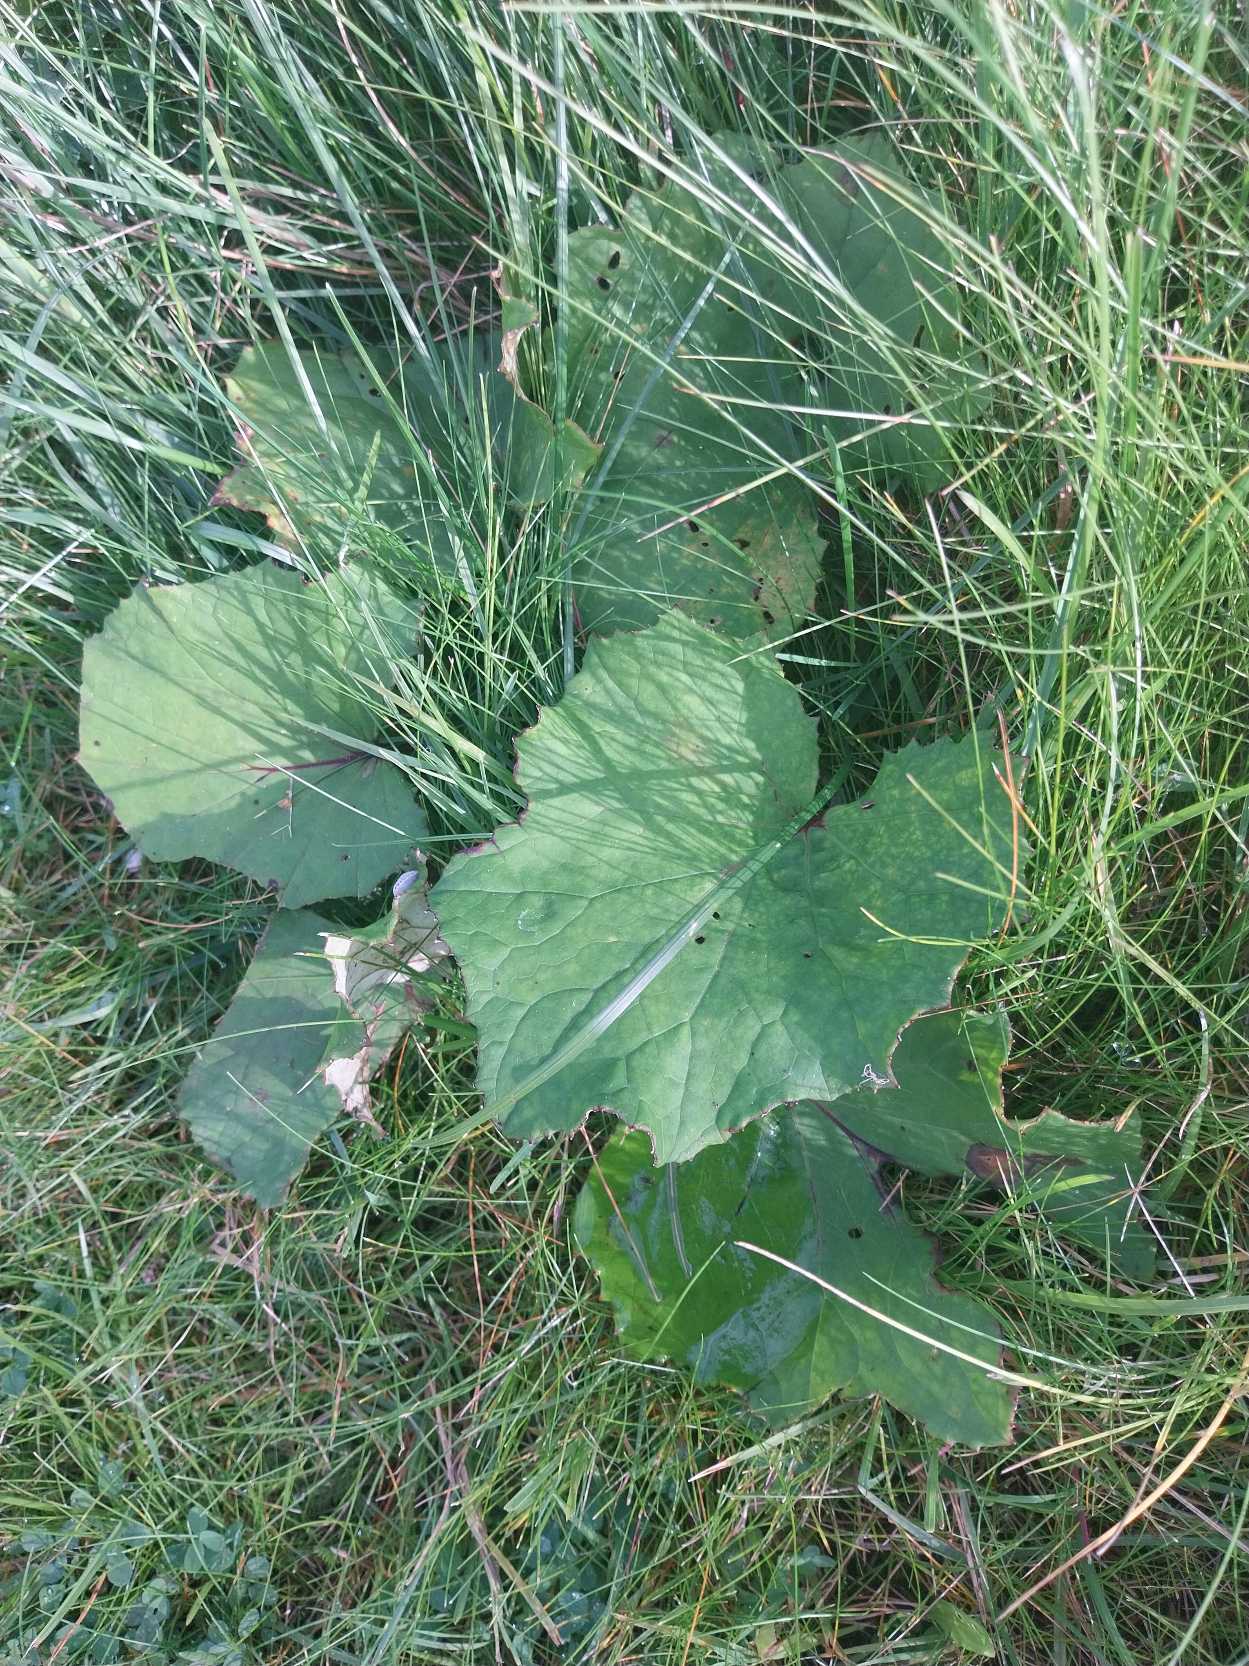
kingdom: Plantae
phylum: Tracheophyta
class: Magnoliopsida
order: Asterales
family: Asteraceae
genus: Tussilago
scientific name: Tussilago farfara
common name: Følfod
